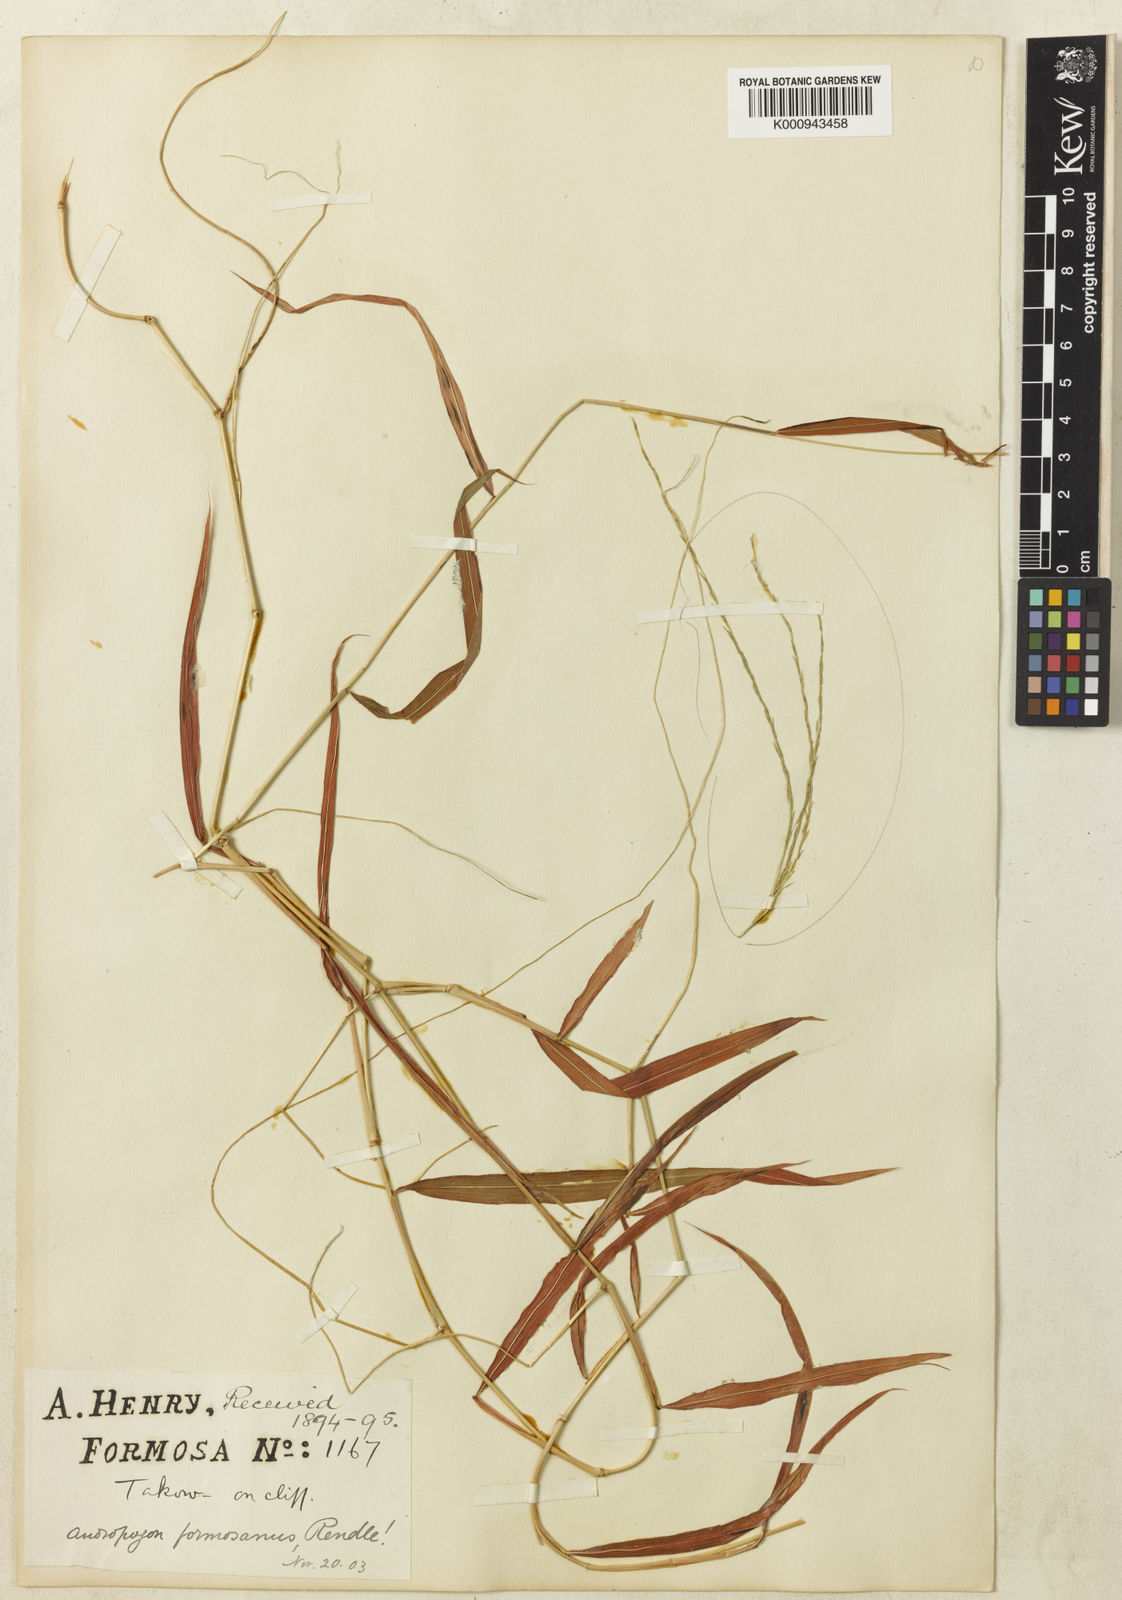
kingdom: Plantae
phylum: Tracheophyta
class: Liliopsida
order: Poales
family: Poaceae
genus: Microstegium
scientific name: Microstegium fasciculatum
